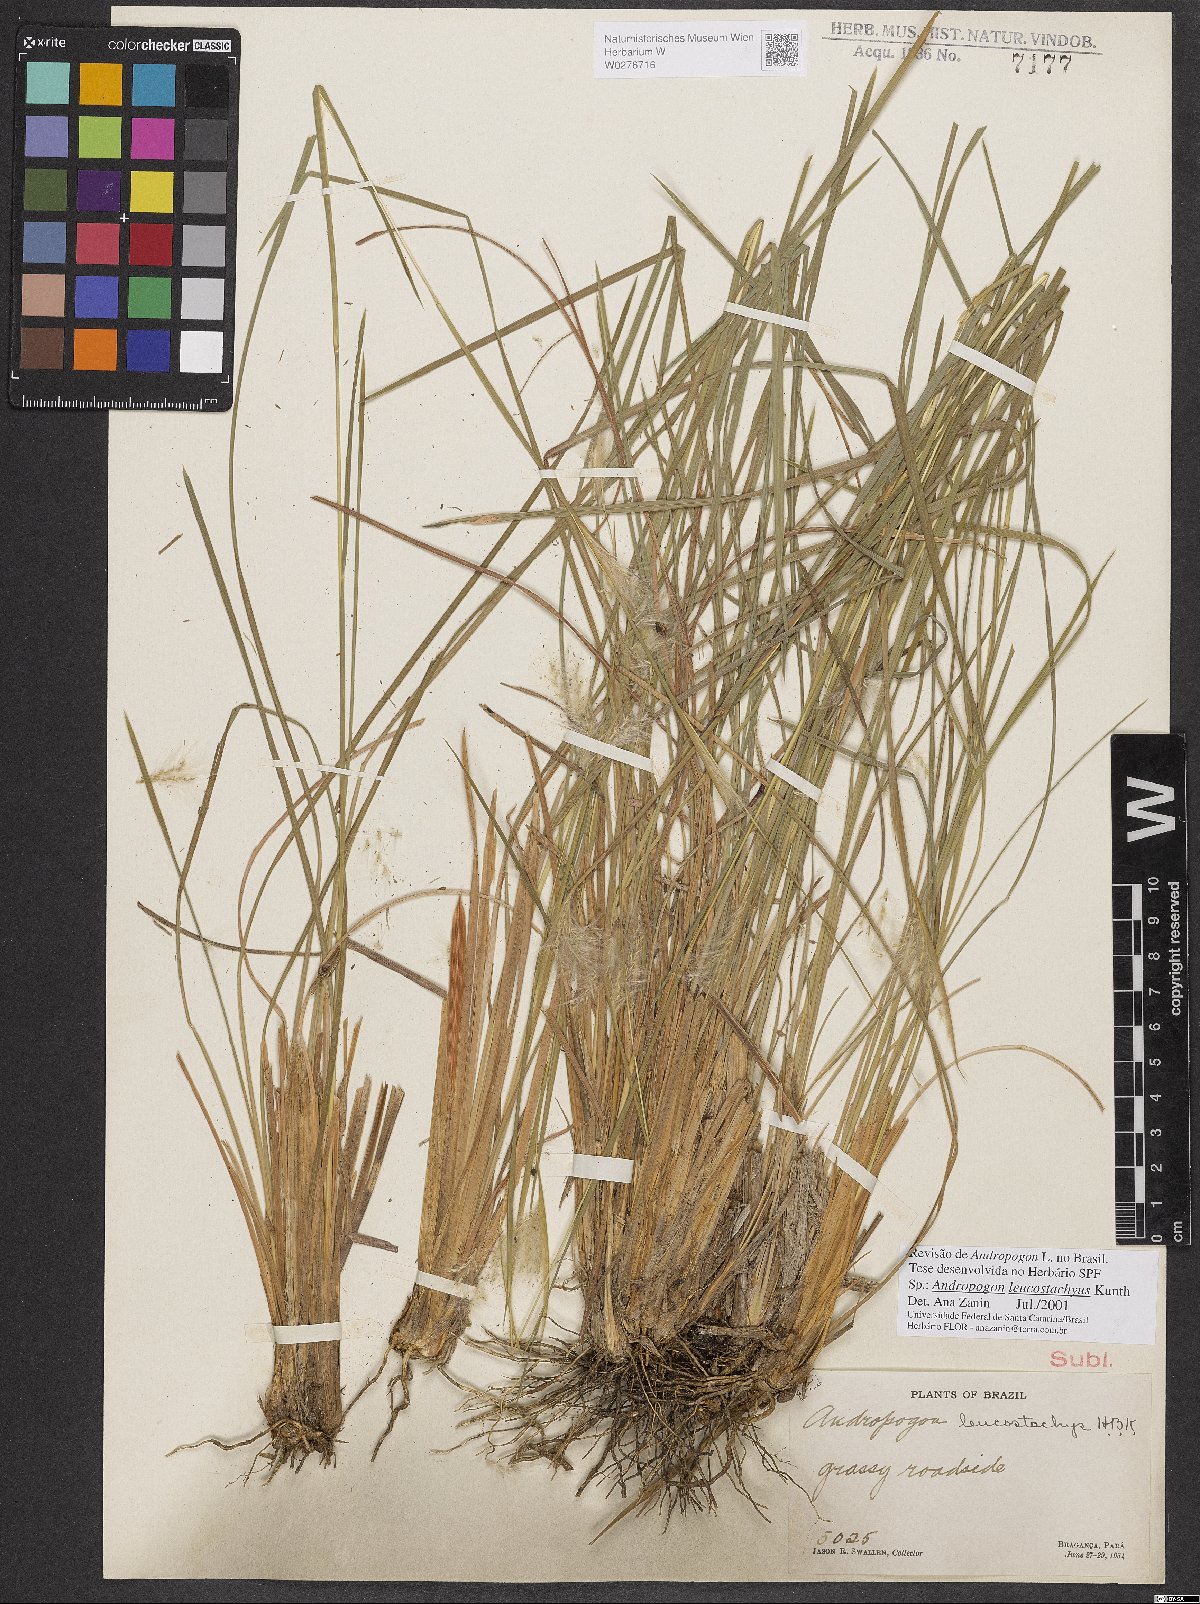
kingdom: Plantae
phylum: Tracheophyta
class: Liliopsida
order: Poales
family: Poaceae
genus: Andropogon
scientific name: Andropogon leucostachyus
